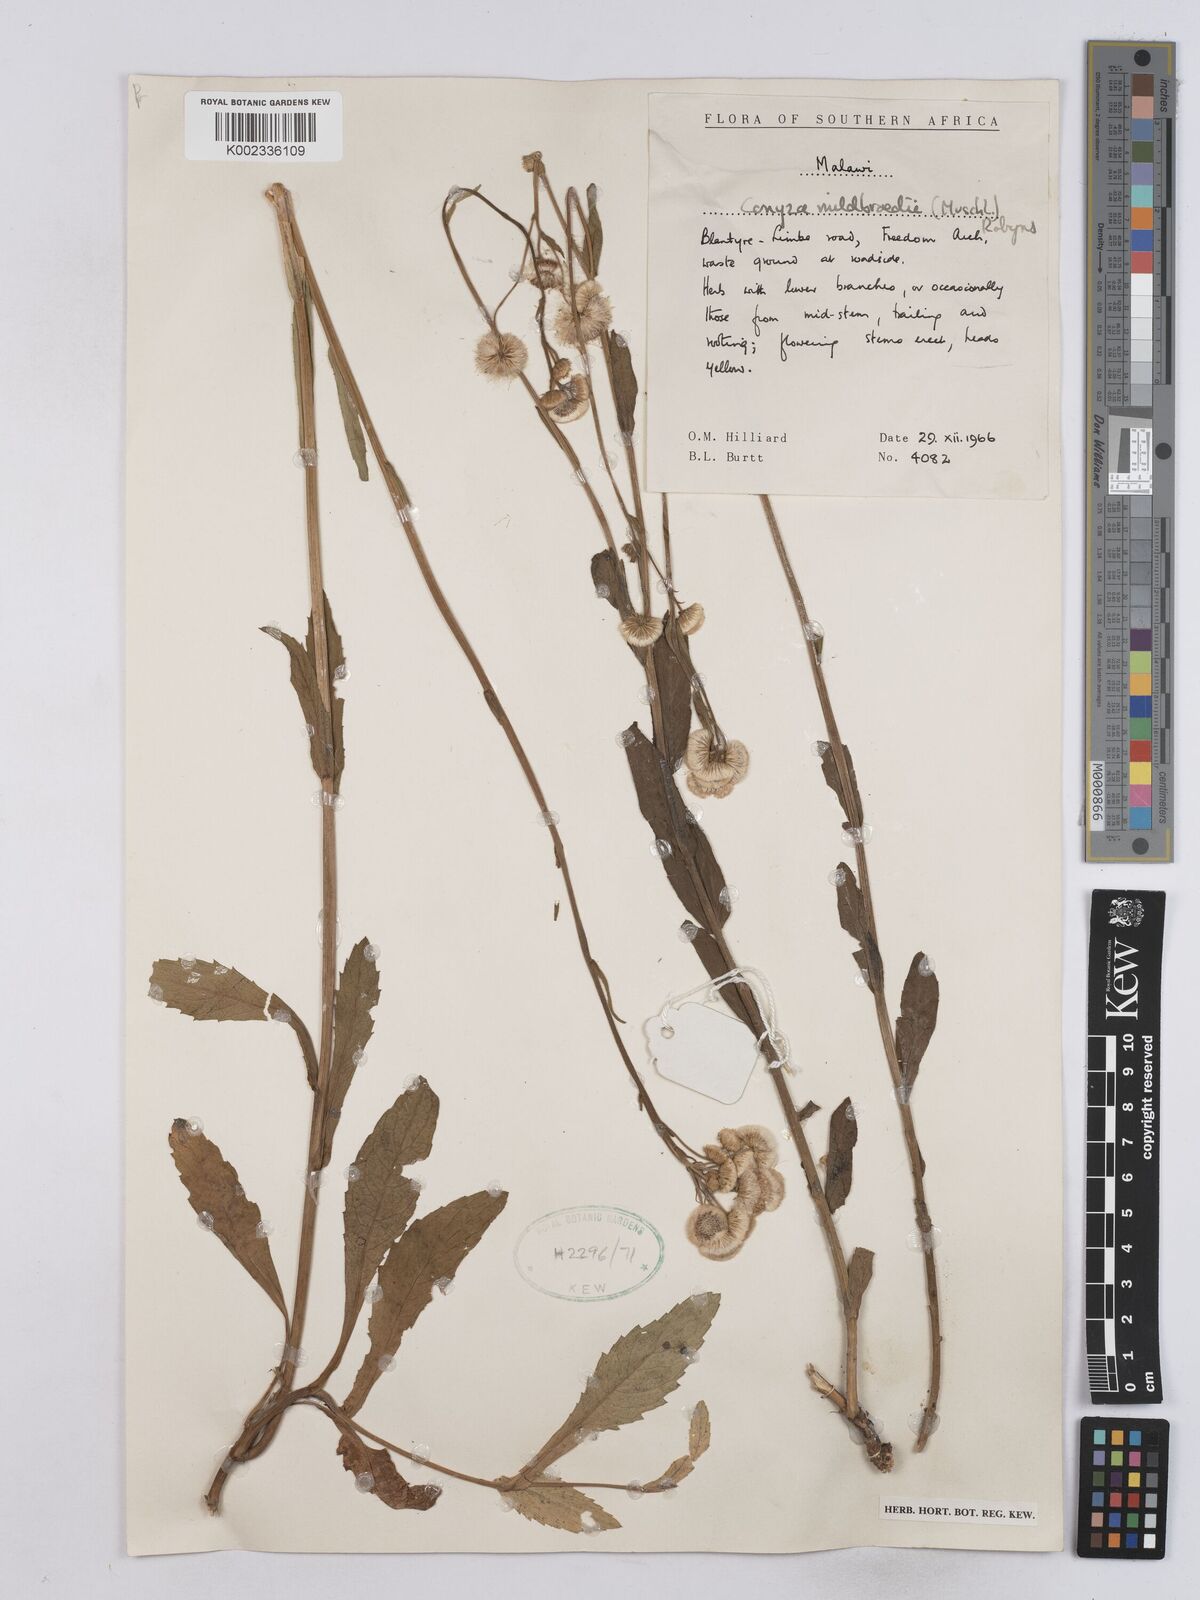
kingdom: Plantae
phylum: Tracheophyta
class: Magnoliopsida
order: Asterales
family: Asteraceae
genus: Conyza
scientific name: Conyza limosa
